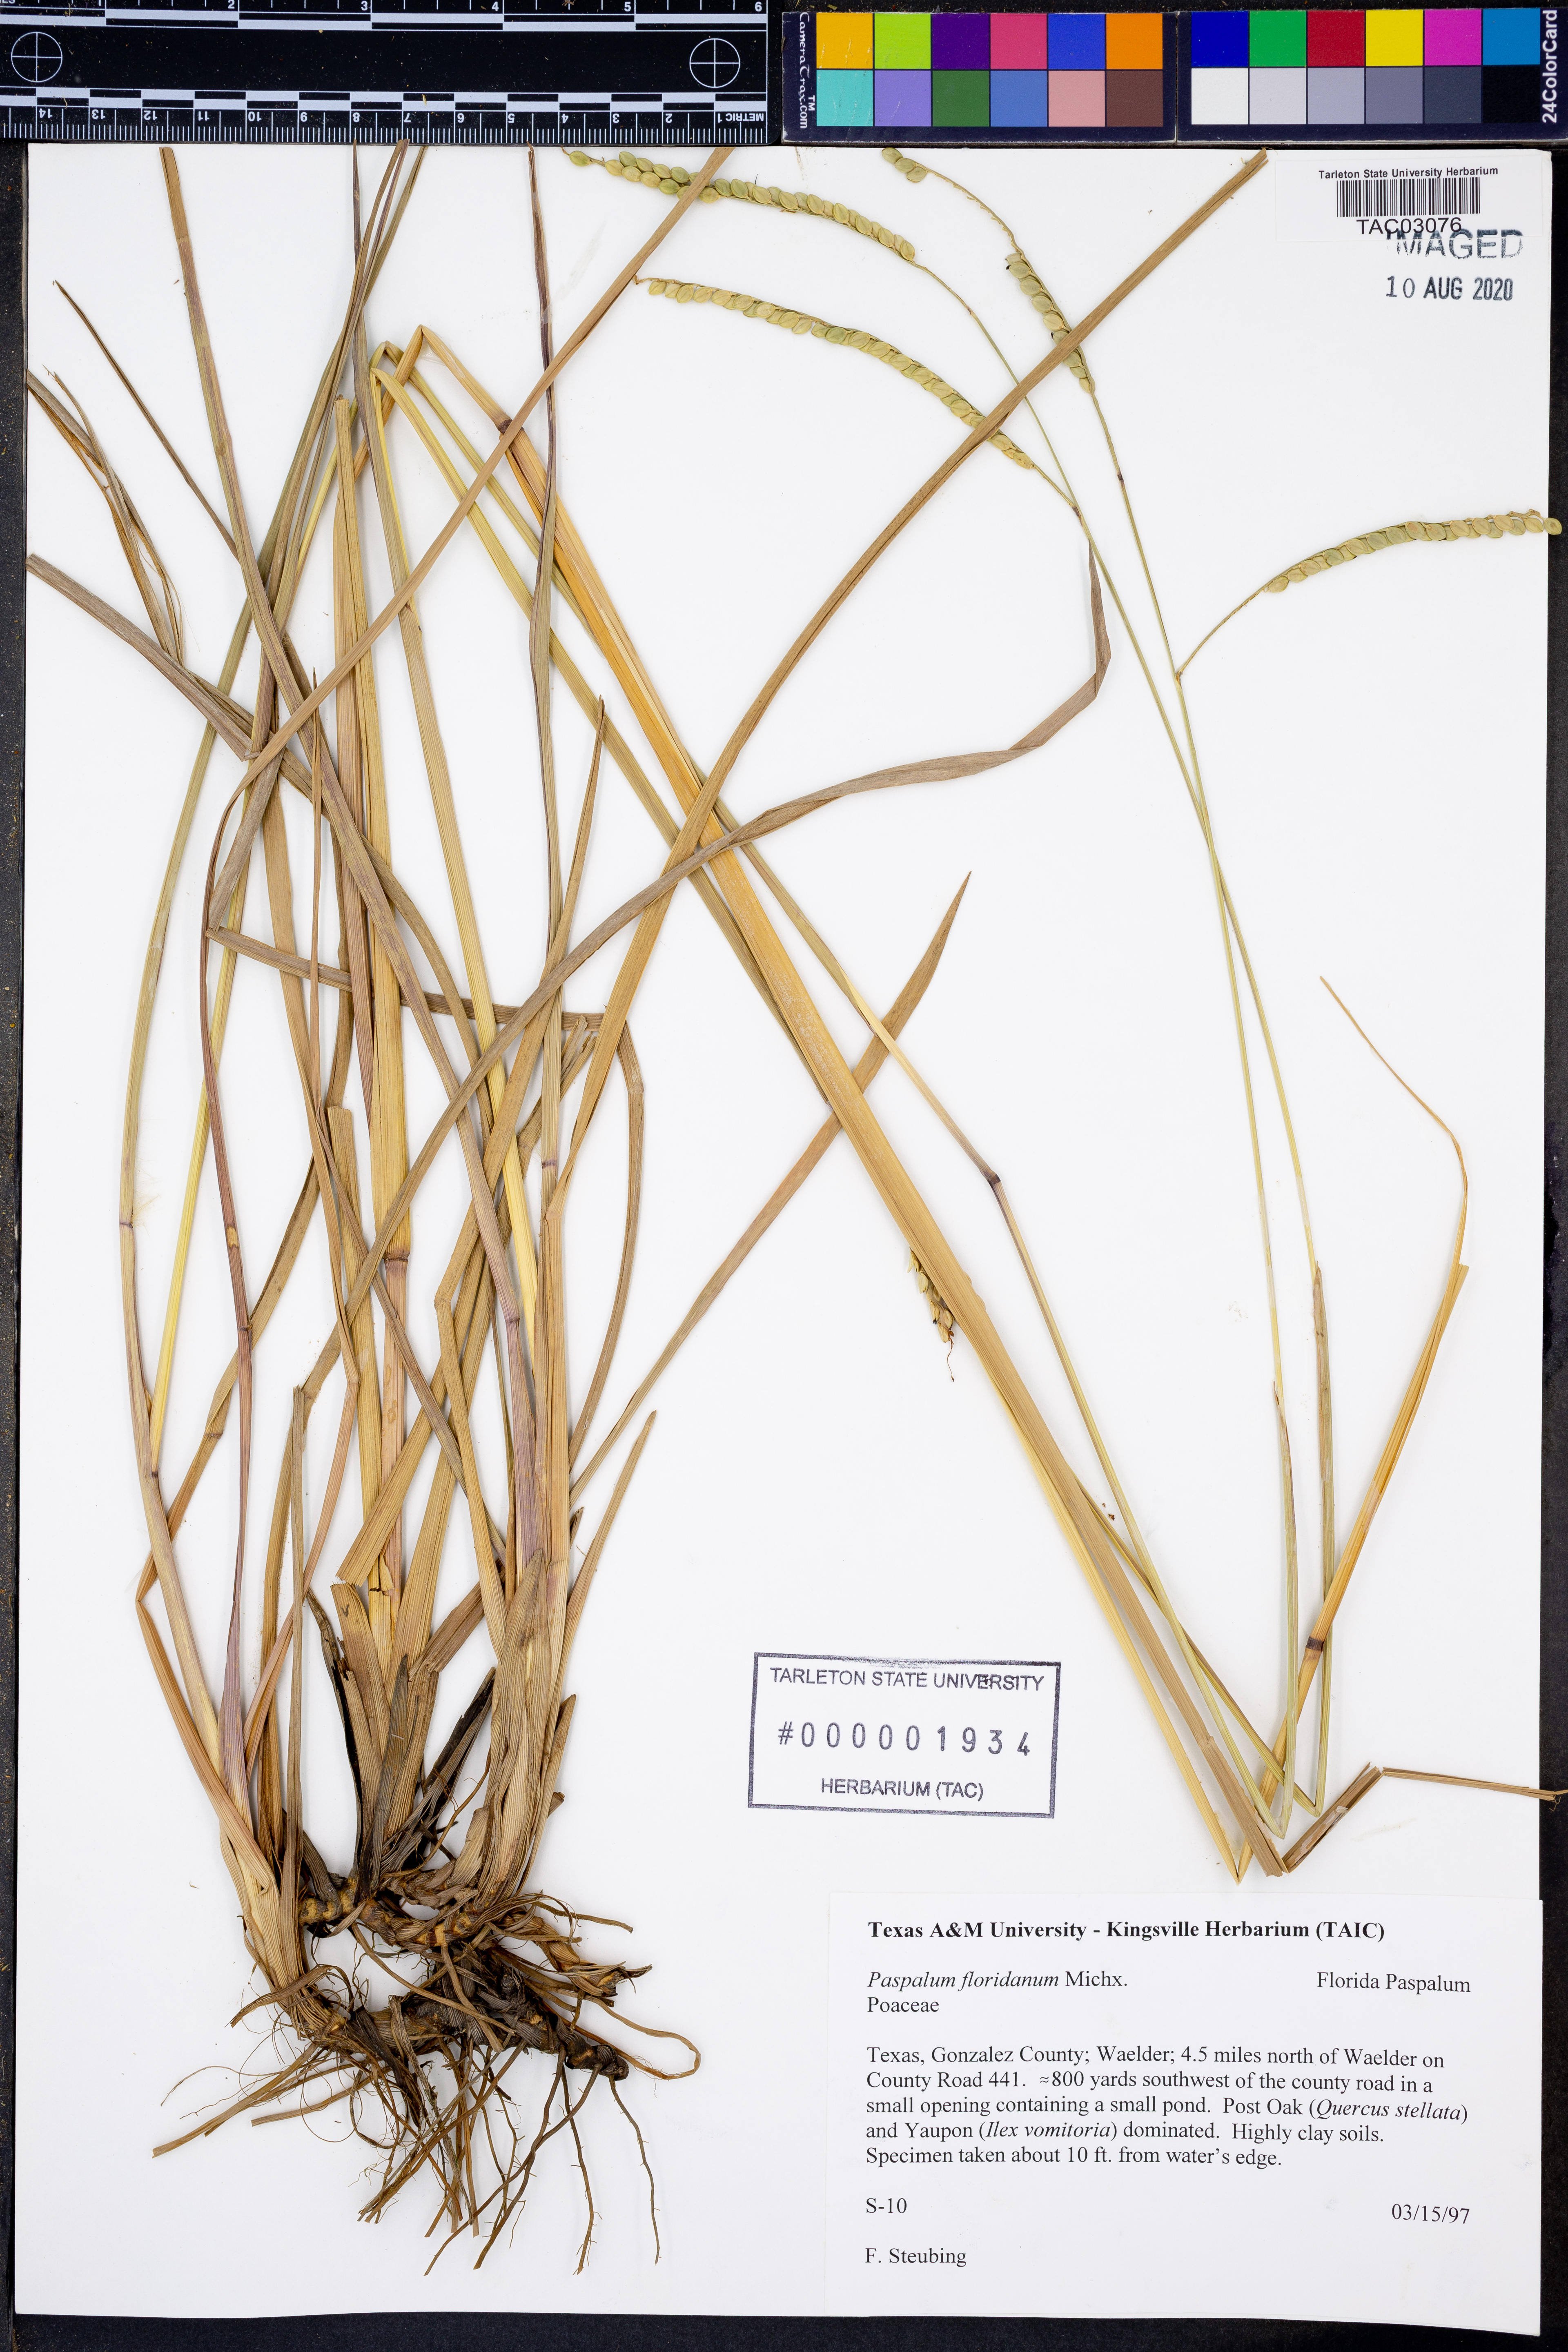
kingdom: Plantae
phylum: Tracheophyta
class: Liliopsida
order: Poales
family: Poaceae
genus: Paspalum
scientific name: Paspalum floridanum
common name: Florida paspalum
